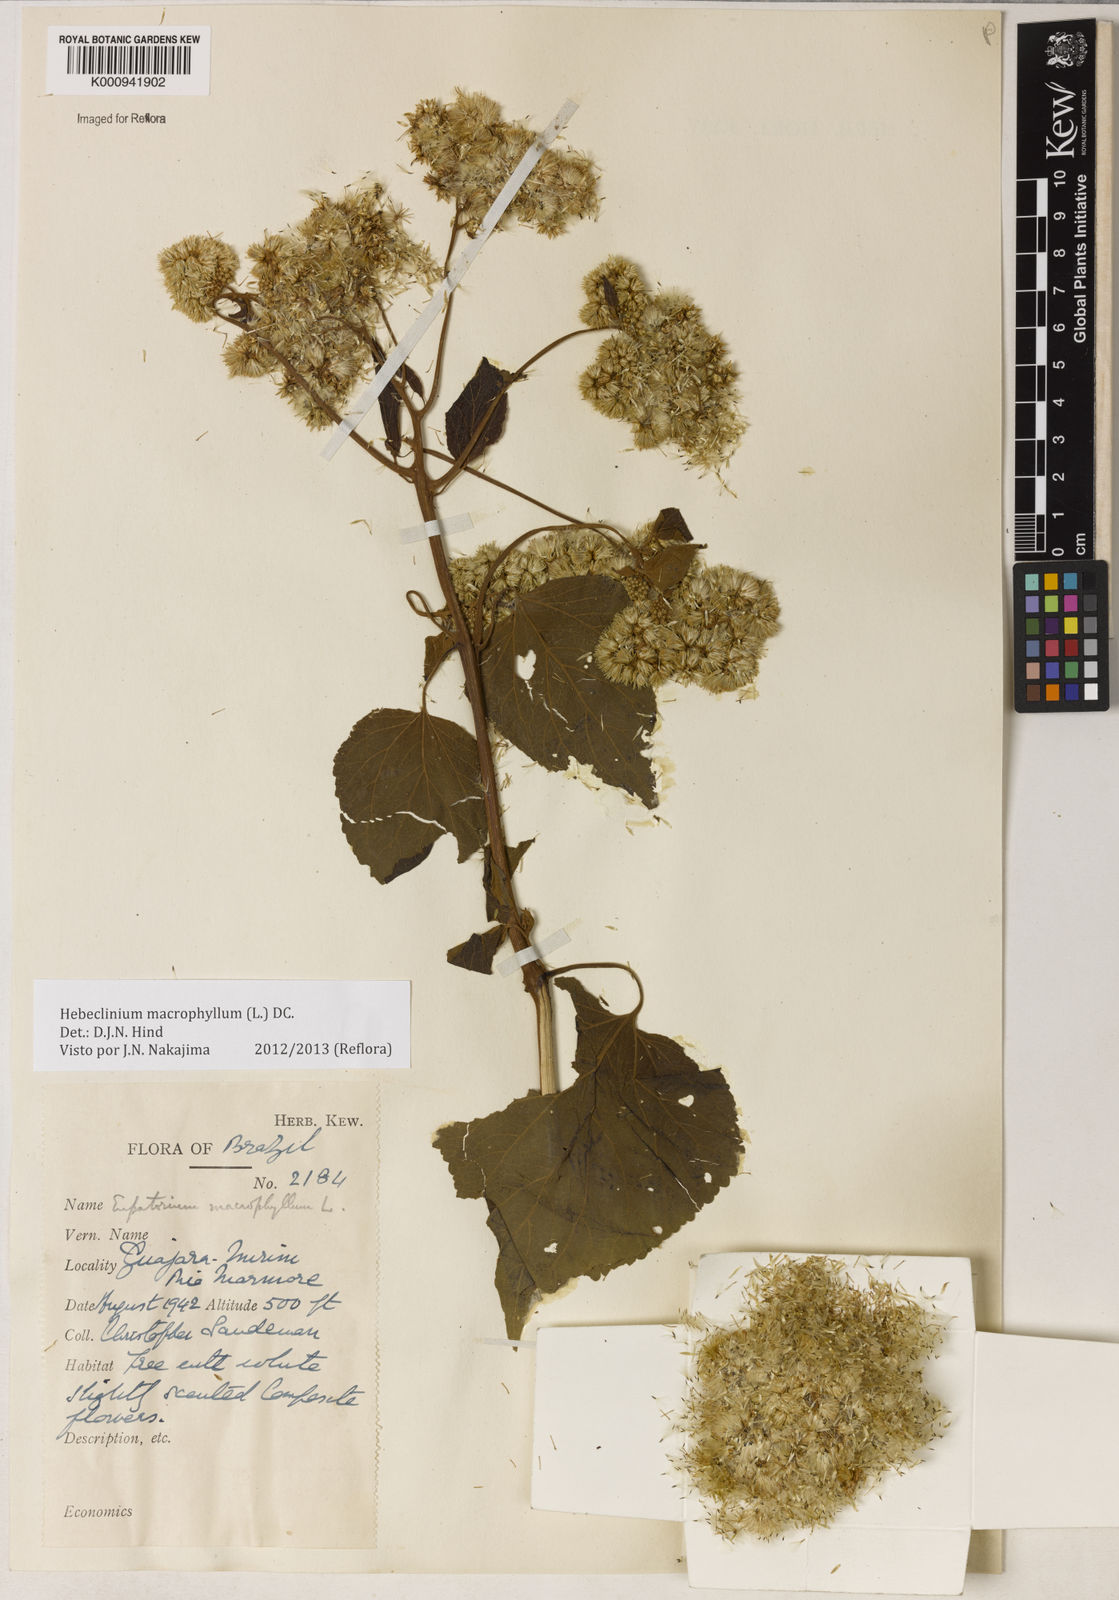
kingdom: Plantae
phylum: Tracheophyta
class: Magnoliopsida
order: Asterales
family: Asteraceae
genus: Hebeclinium
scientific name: Hebeclinium macrophyllum
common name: Largeleaf thoroughwort
